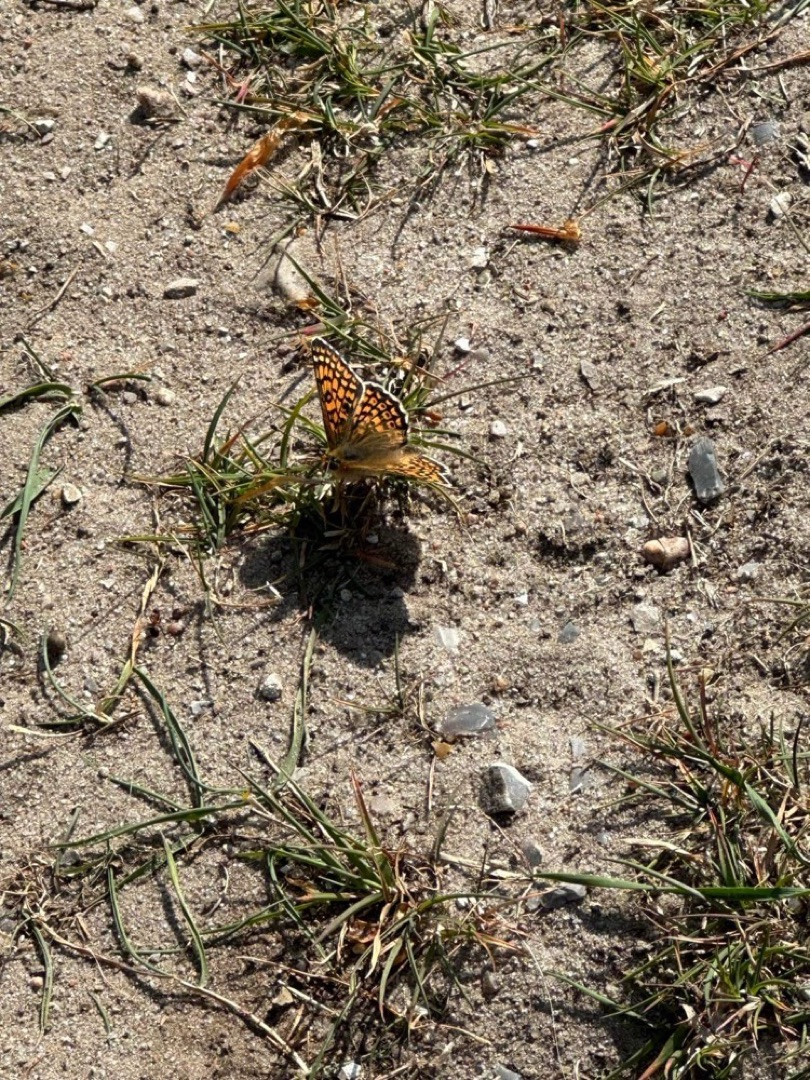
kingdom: Animalia
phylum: Arthropoda
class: Insecta
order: Lepidoptera
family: Nymphalidae
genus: Melitaea
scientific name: Melitaea cinxia
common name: Okkergul pletvinge
